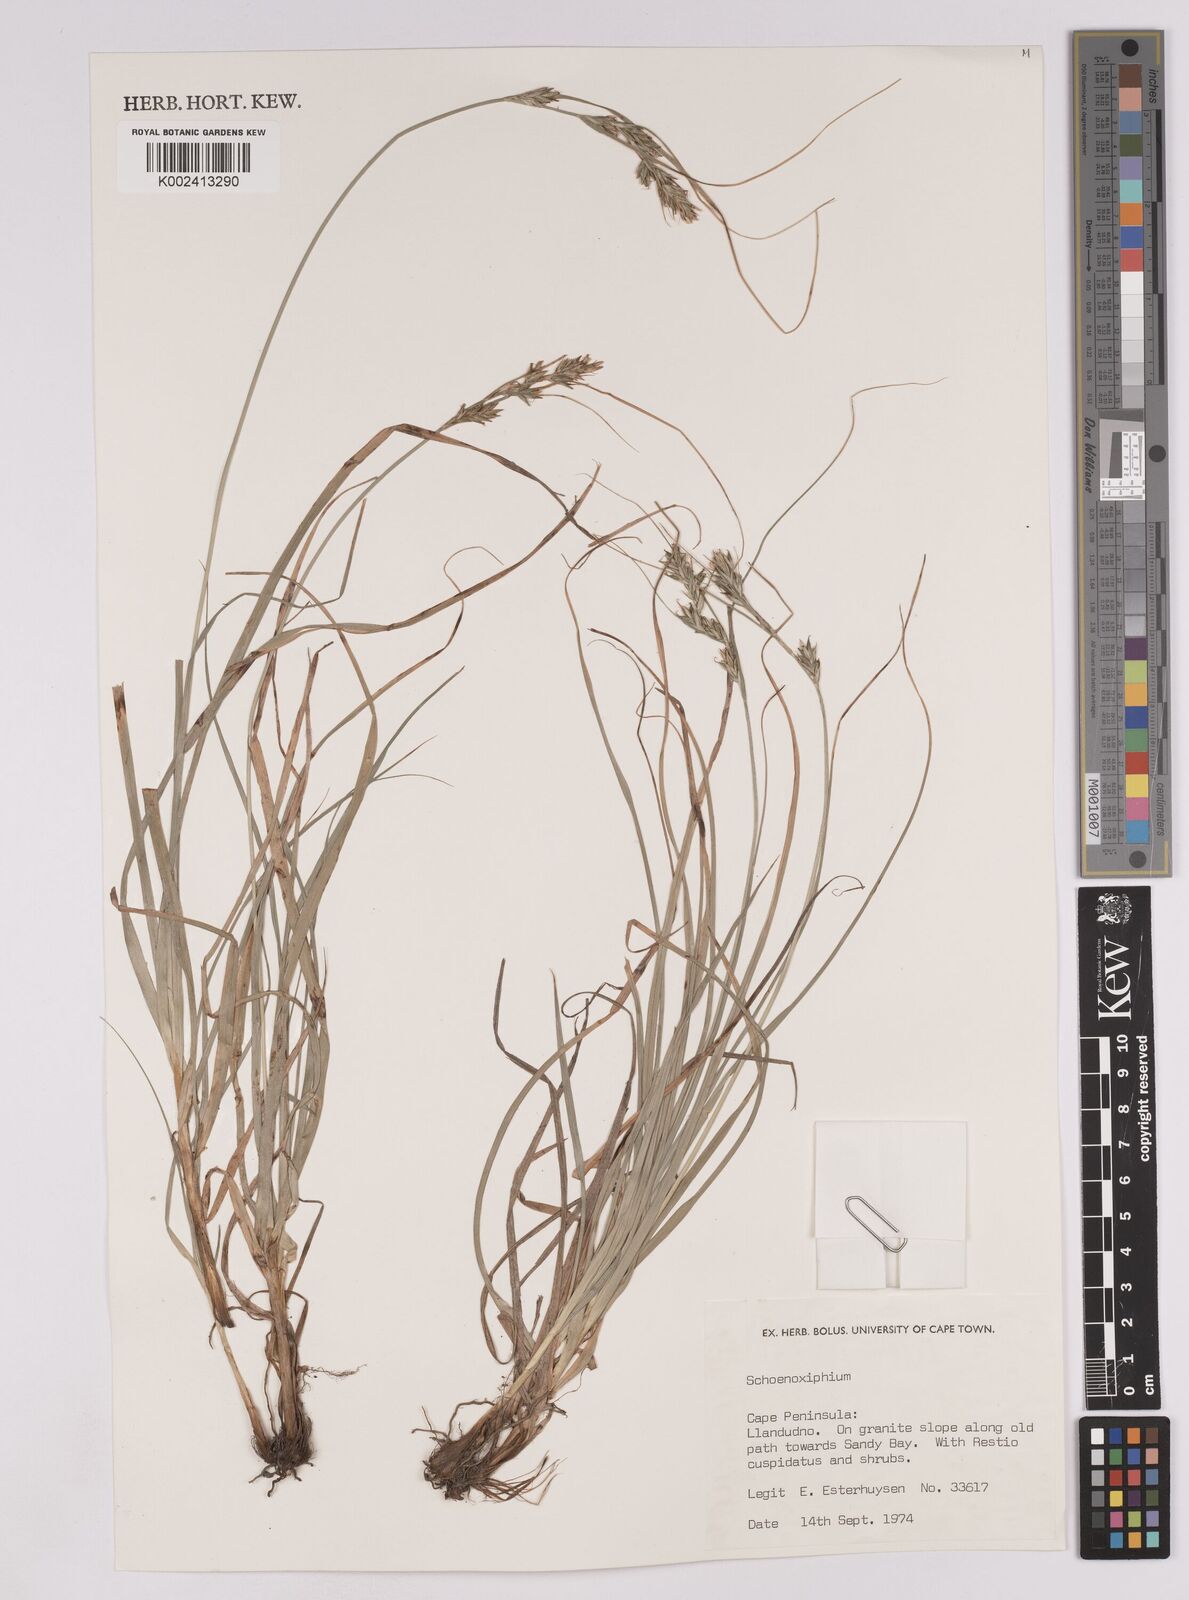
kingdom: Plantae
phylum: Tracheophyta
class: Liliopsida
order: Poales
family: Cyperaceae
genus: Carex
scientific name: Carex
